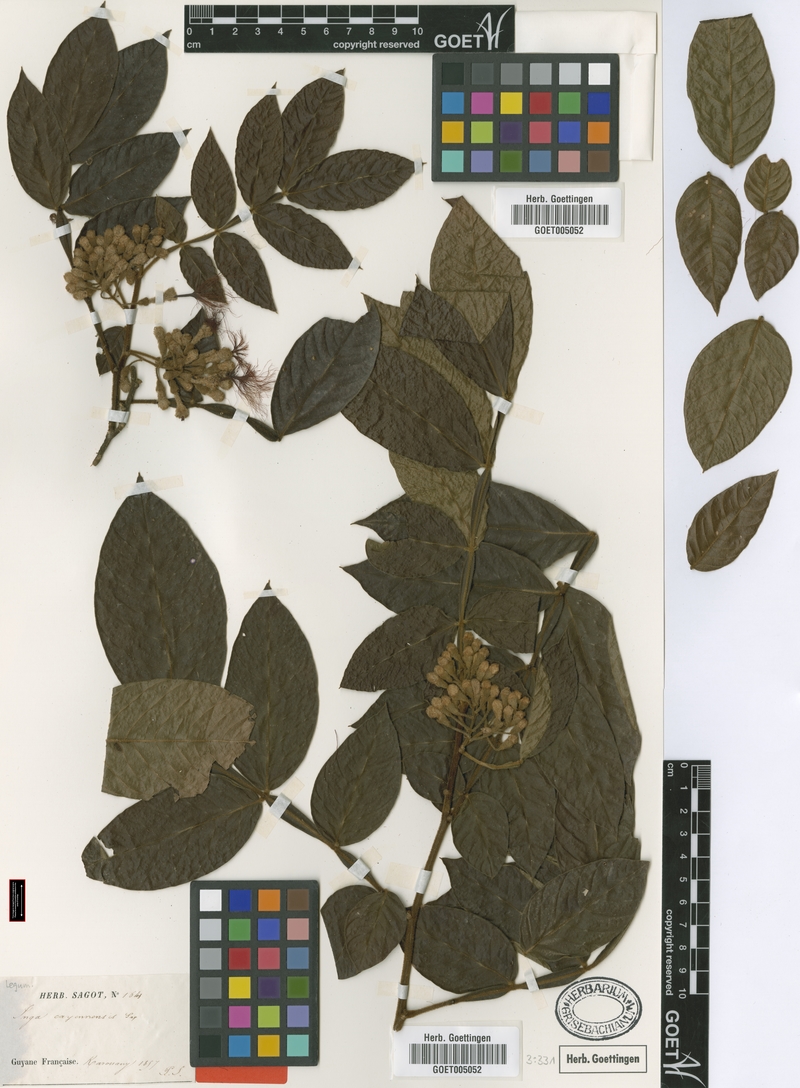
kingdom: Plantae
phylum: Tracheophyta
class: Magnoliopsida
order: Fabales
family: Fabaceae
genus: Inga
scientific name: Inga cayennensis
